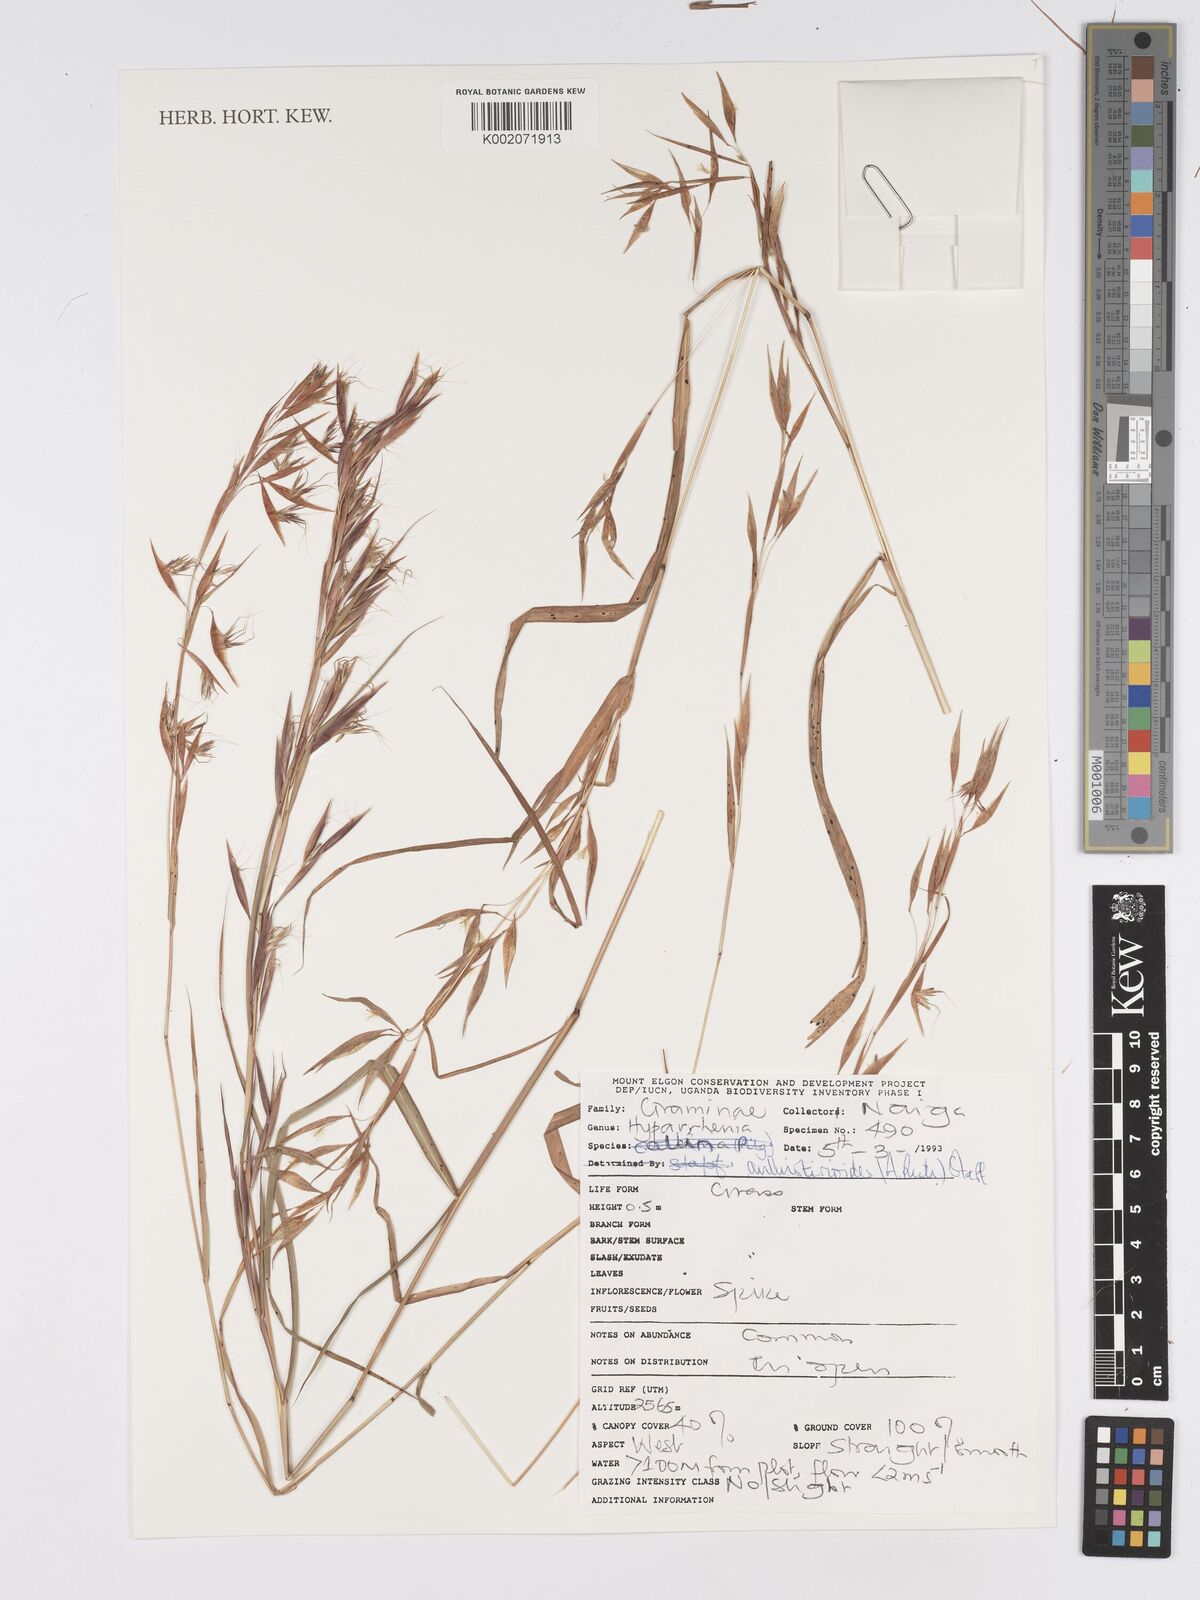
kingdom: Plantae
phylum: Tracheophyta
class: Liliopsida
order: Poales
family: Poaceae
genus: Hyparrhenia
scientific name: Hyparrhenia anthistirioides
